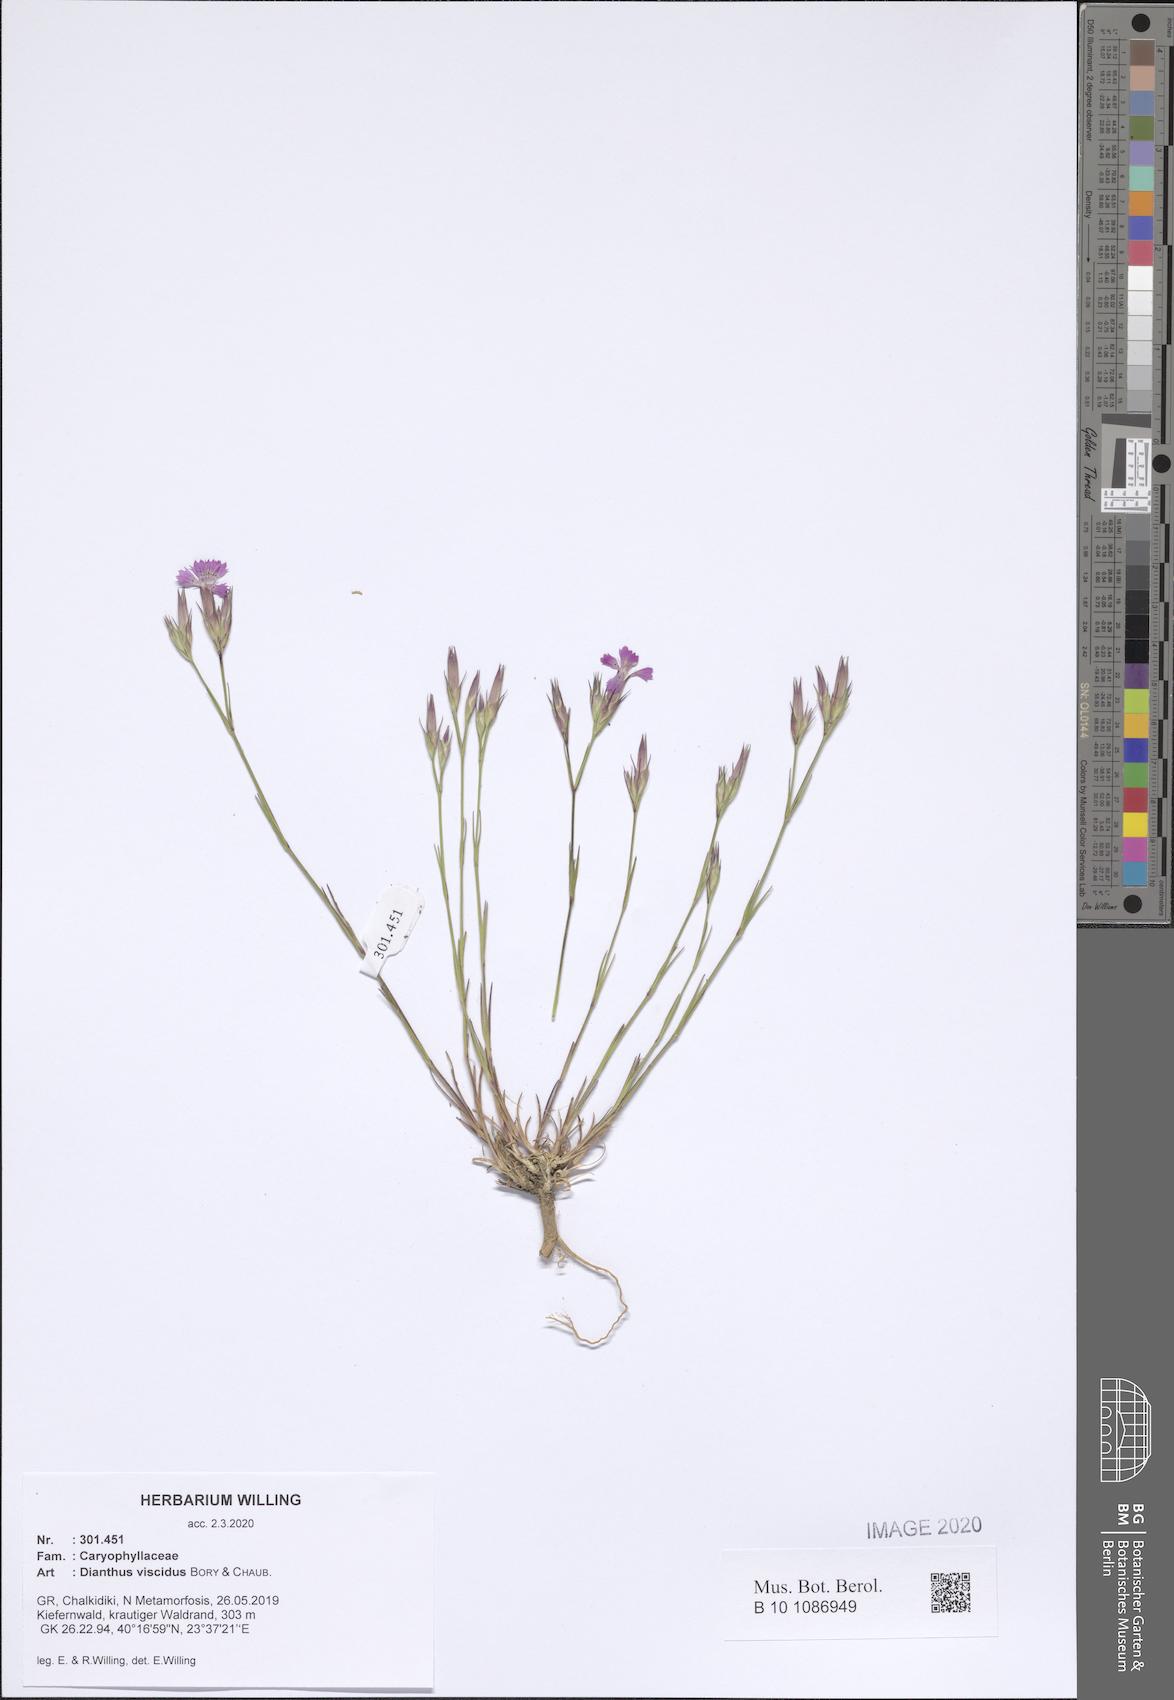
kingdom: Plantae
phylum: Tracheophyta
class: Magnoliopsida
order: Caryophyllales
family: Caryophyllaceae
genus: Dianthus
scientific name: Dianthus viscidus
